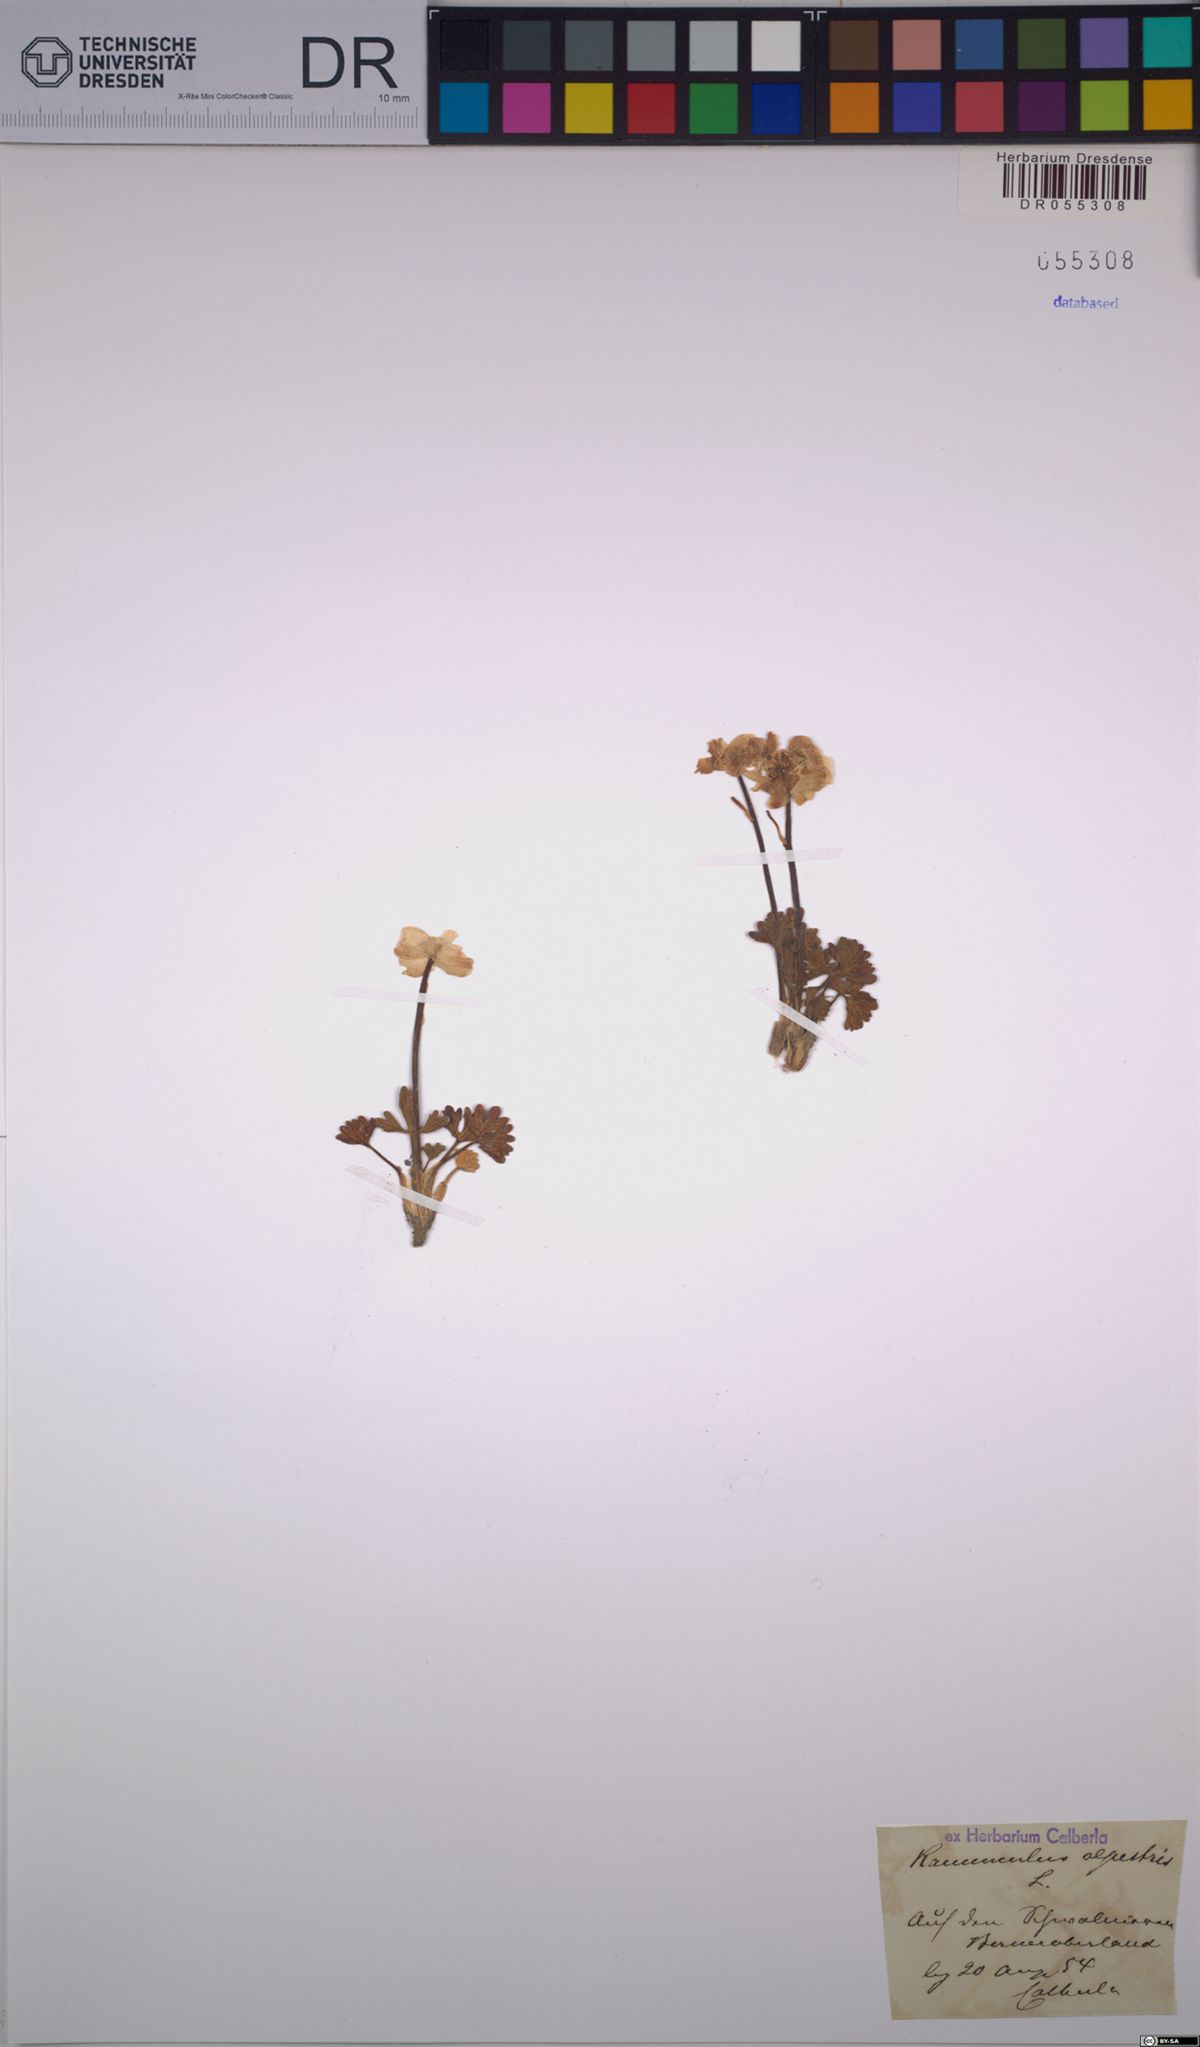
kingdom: Plantae
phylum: Tracheophyta
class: Magnoliopsida
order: Ranunculales
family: Ranunculaceae
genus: Ranunculus
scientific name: Ranunculus alpestris
